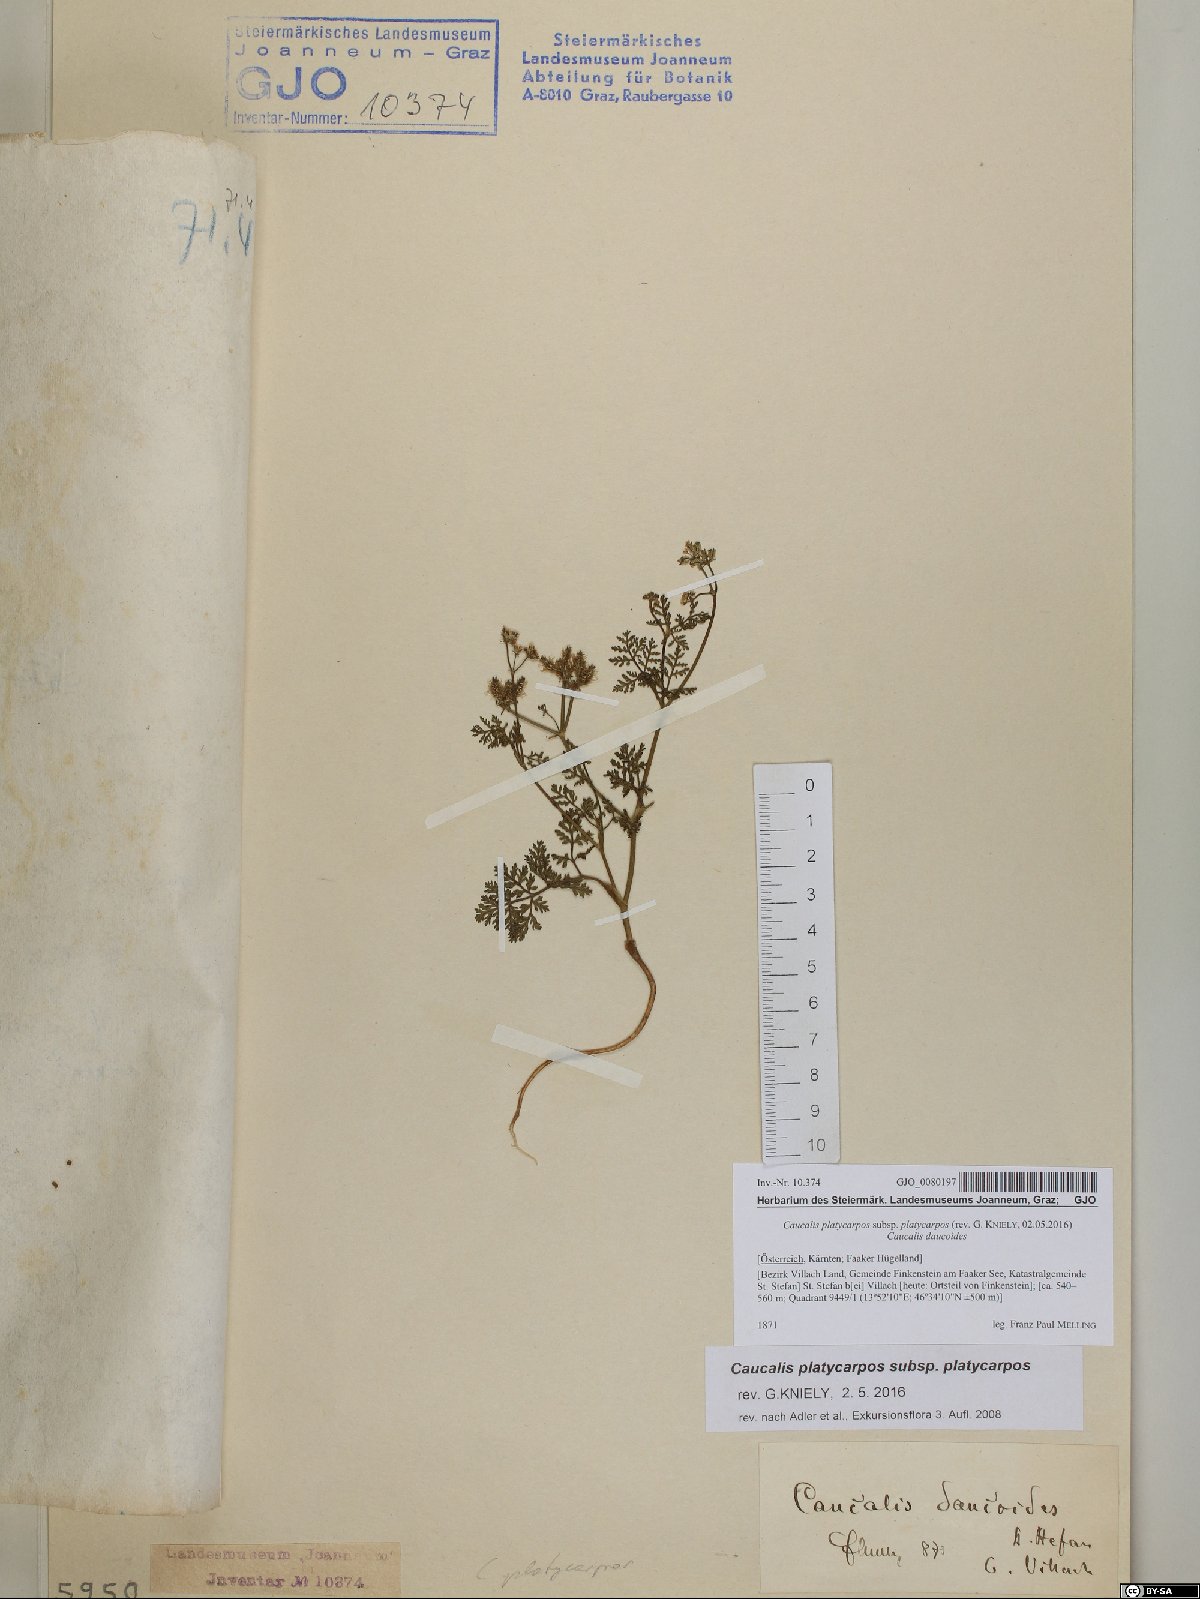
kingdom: Plantae
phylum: Tracheophyta
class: Magnoliopsida
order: Apiales
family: Apiaceae
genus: Caucalis
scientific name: Caucalis platycarpos
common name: Small bur-parsley
